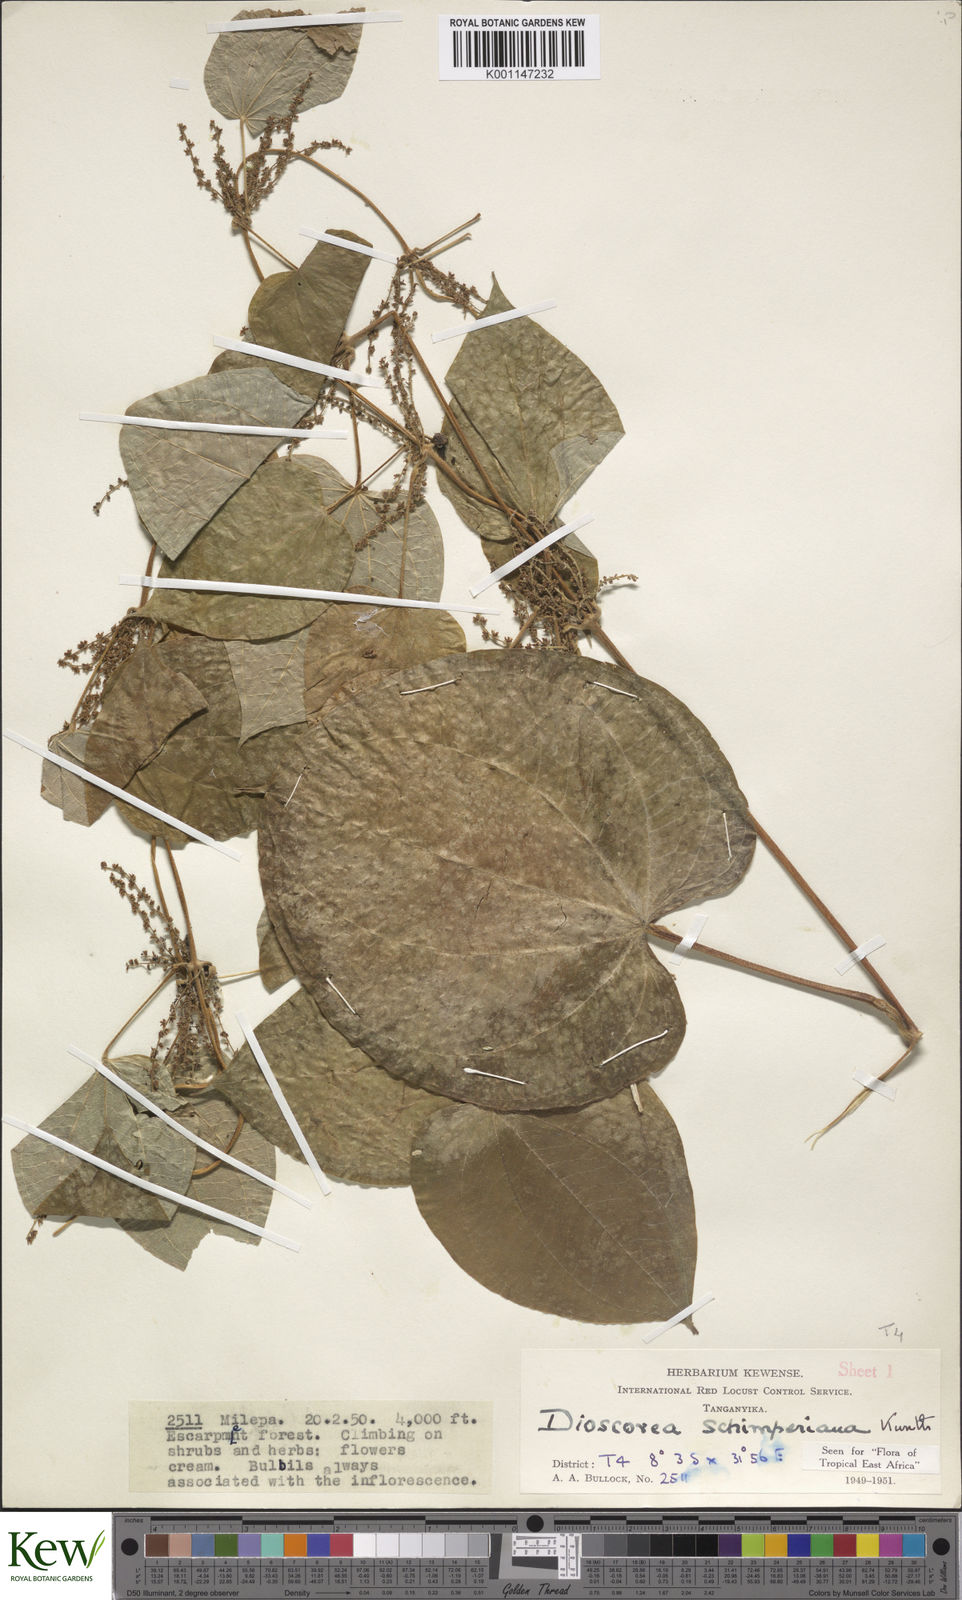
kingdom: Plantae
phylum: Tracheophyta
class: Liliopsida
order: Dioscoreales
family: Dioscoreaceae
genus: Dioscorea
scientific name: Dioscorea schimperiana
